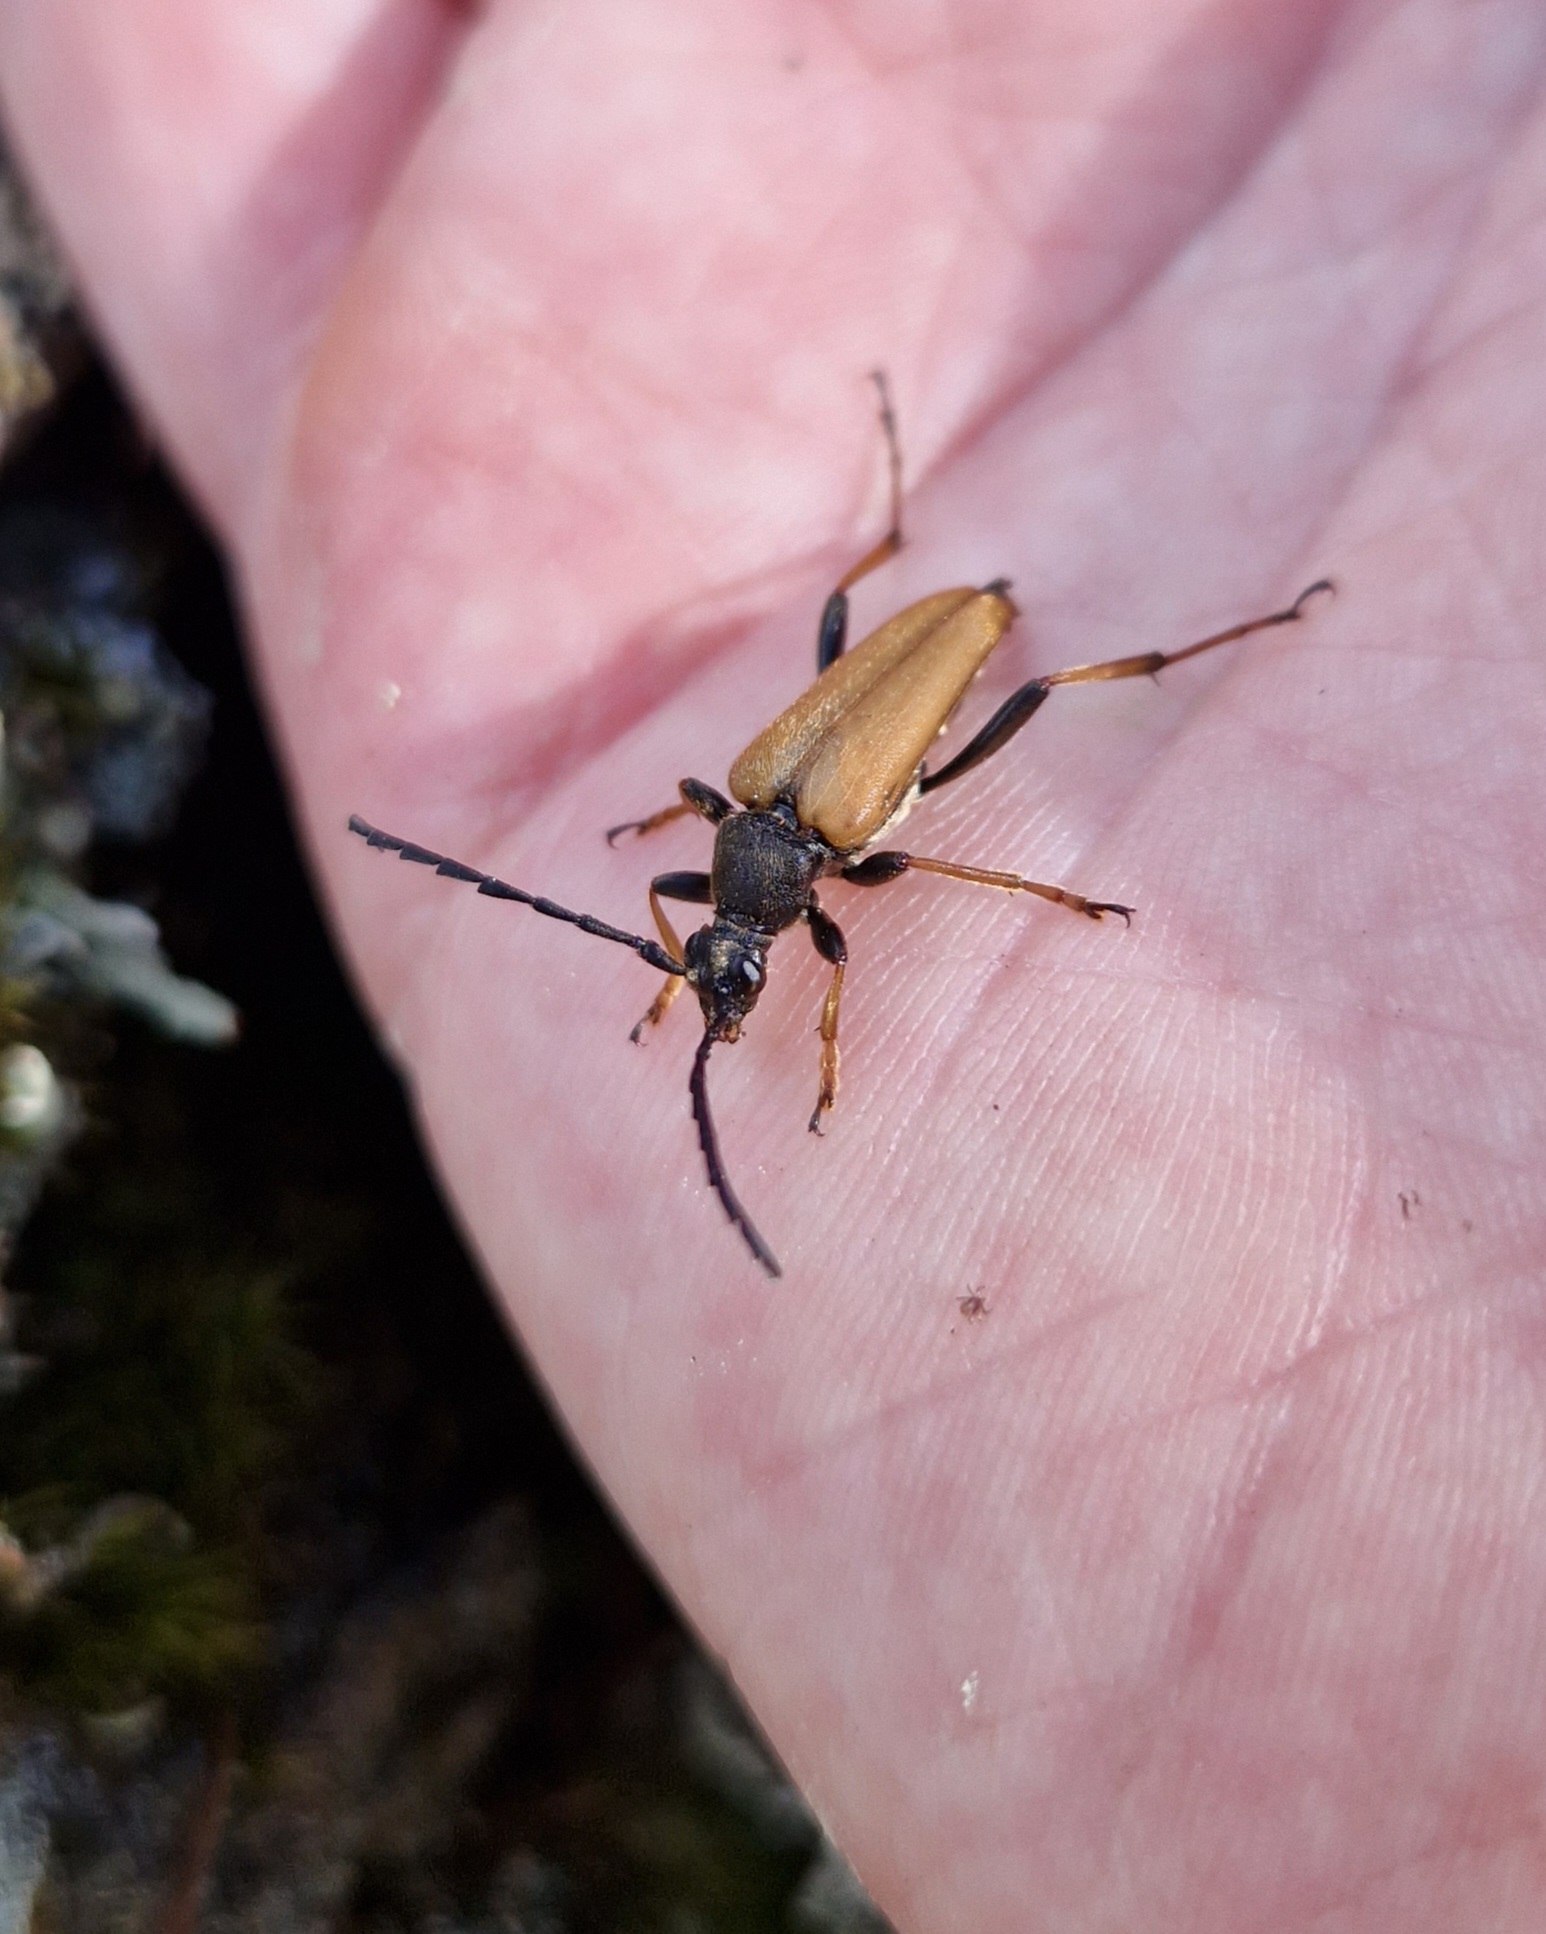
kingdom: Animalia
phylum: Arthropoda
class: Insecta
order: Coleoptera
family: Cerambycidae
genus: Stictoleptura
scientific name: Stictoleptura rubra
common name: Rød blomsterbuk
